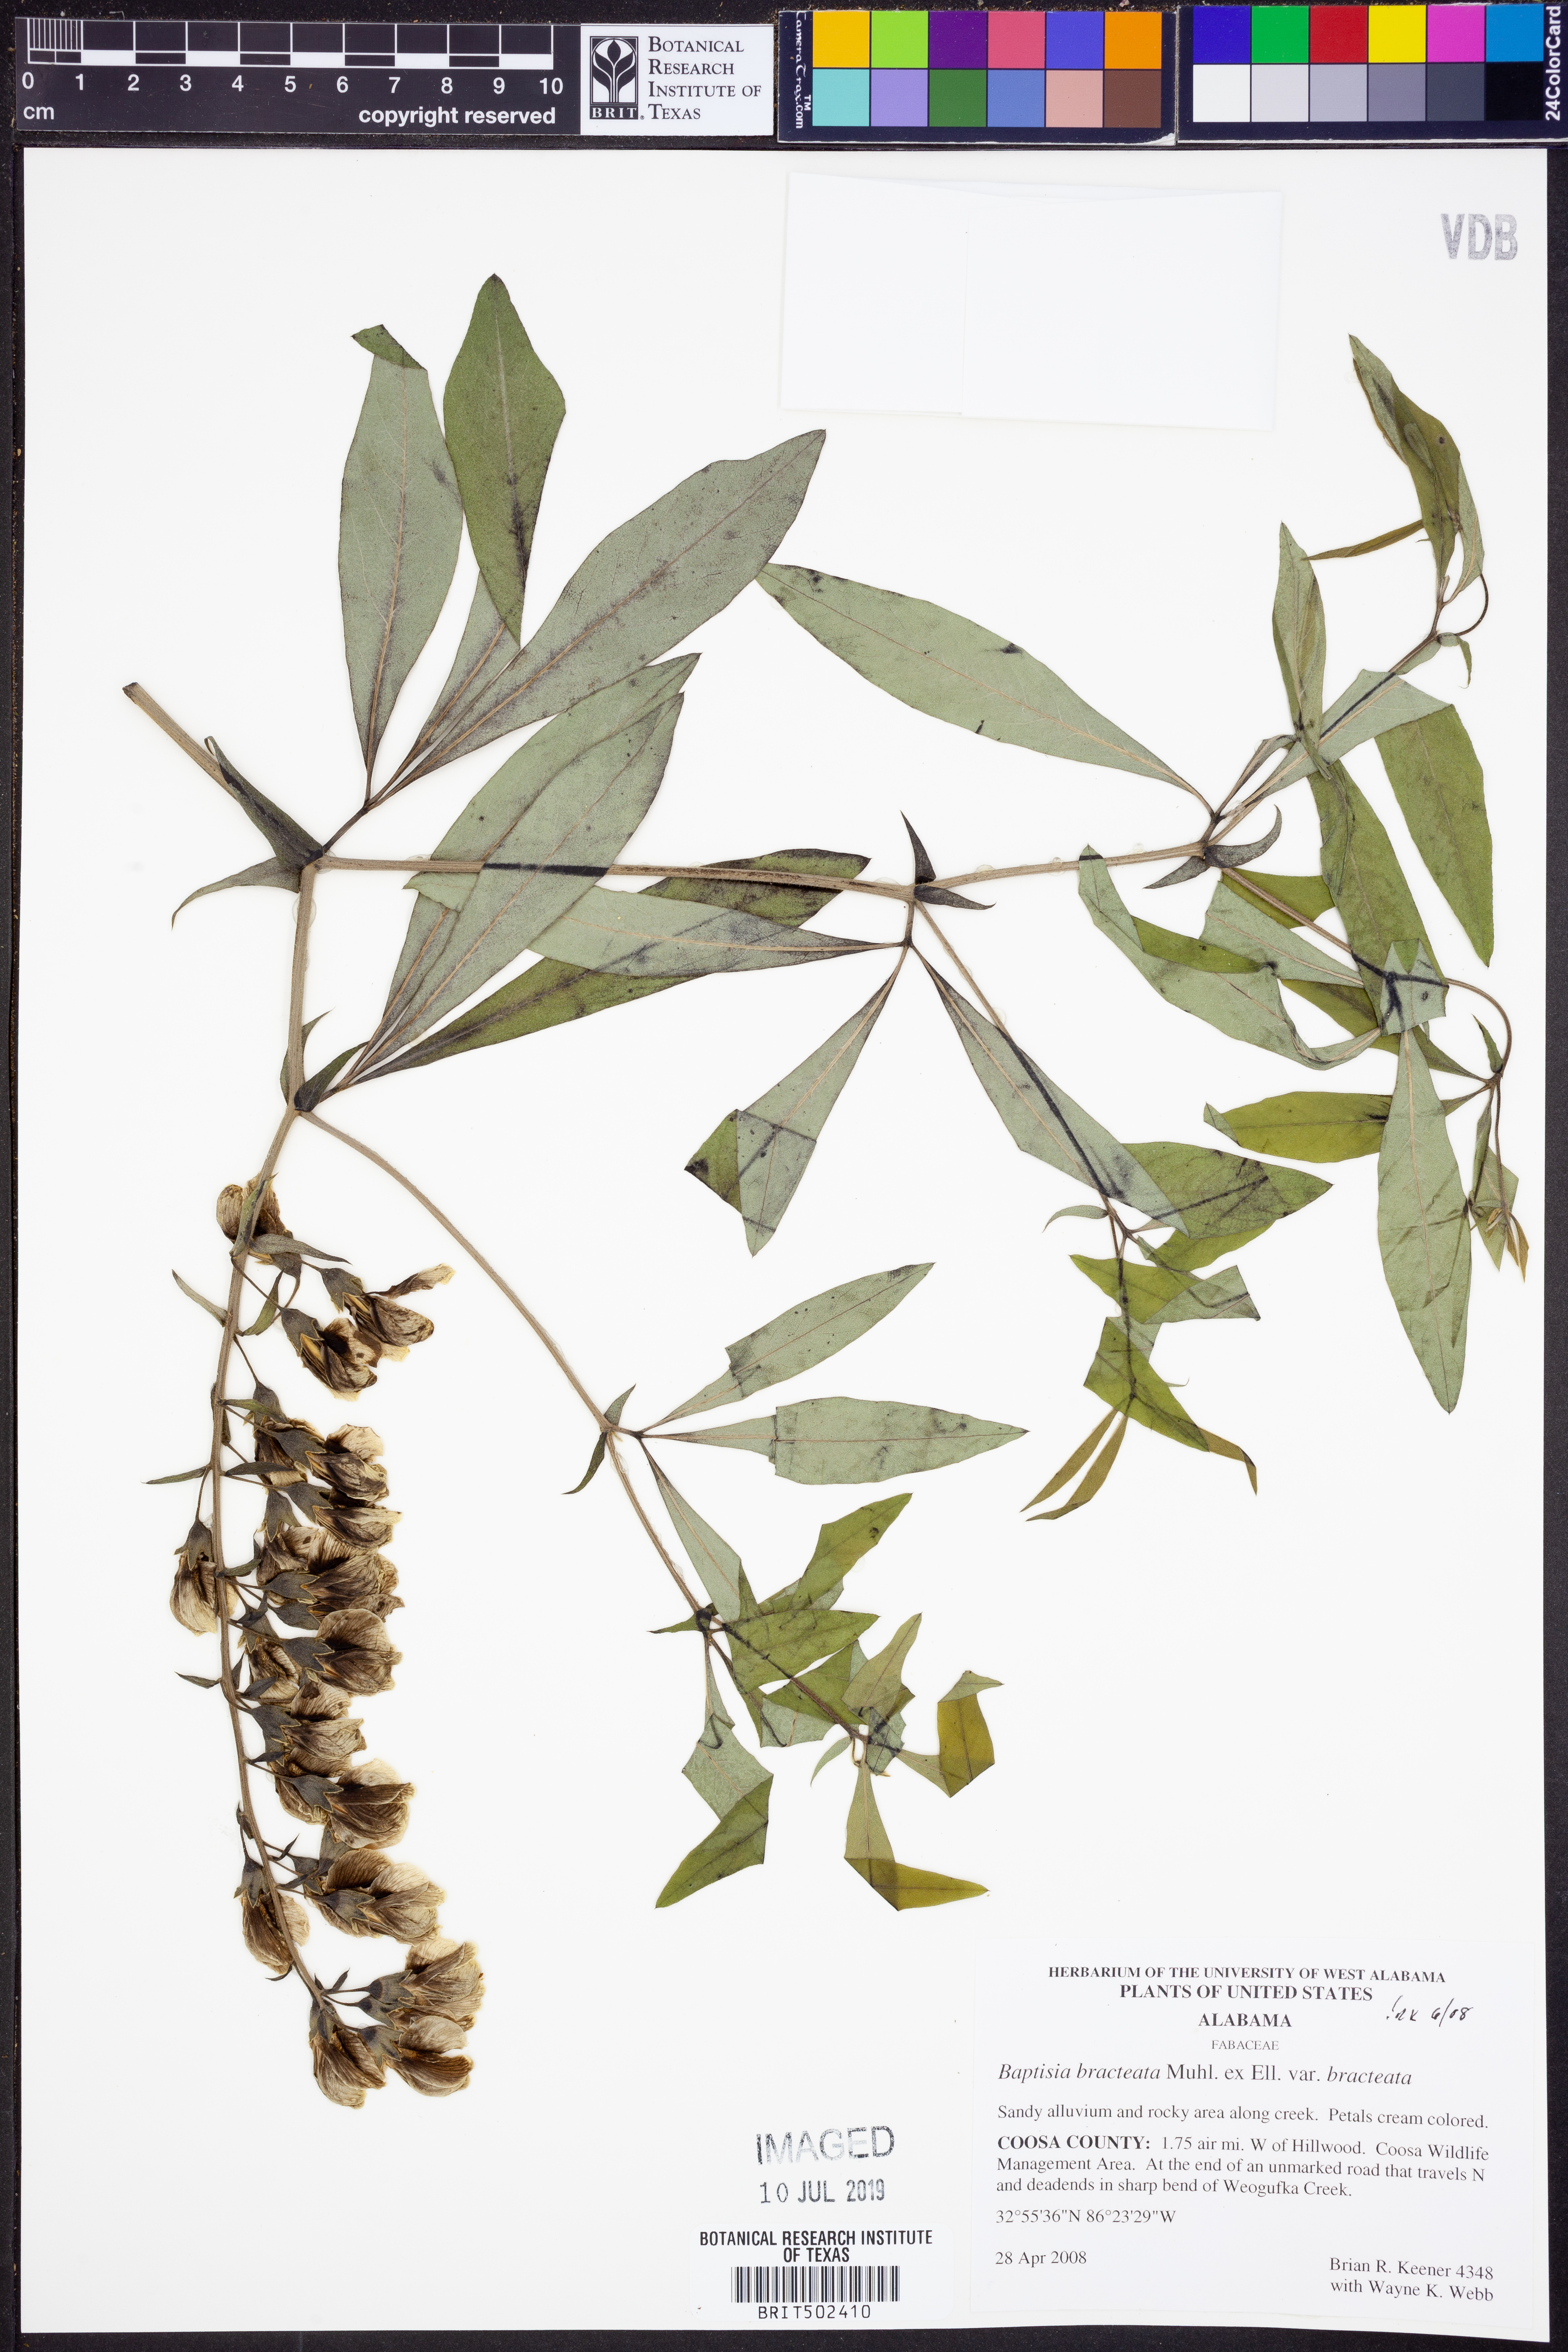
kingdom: Plantae
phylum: Tracheophyta
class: Magnoliopsida
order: Fabales
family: Fabaceae
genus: Baptisia
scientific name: Baptisia bracteata
